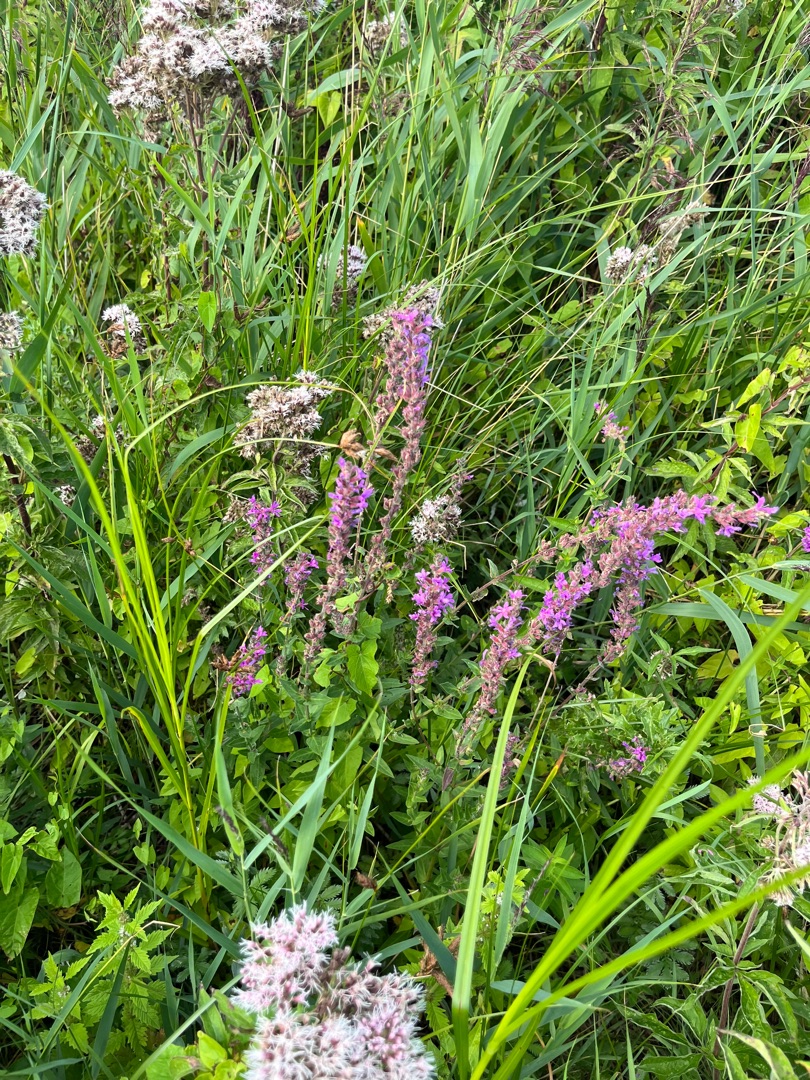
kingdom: Plantae
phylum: Tracheophyta
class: Magnoliopsida
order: Myrtales
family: Lythraceae
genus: Lythrum
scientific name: Lythrum salicaria
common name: Kattehale
